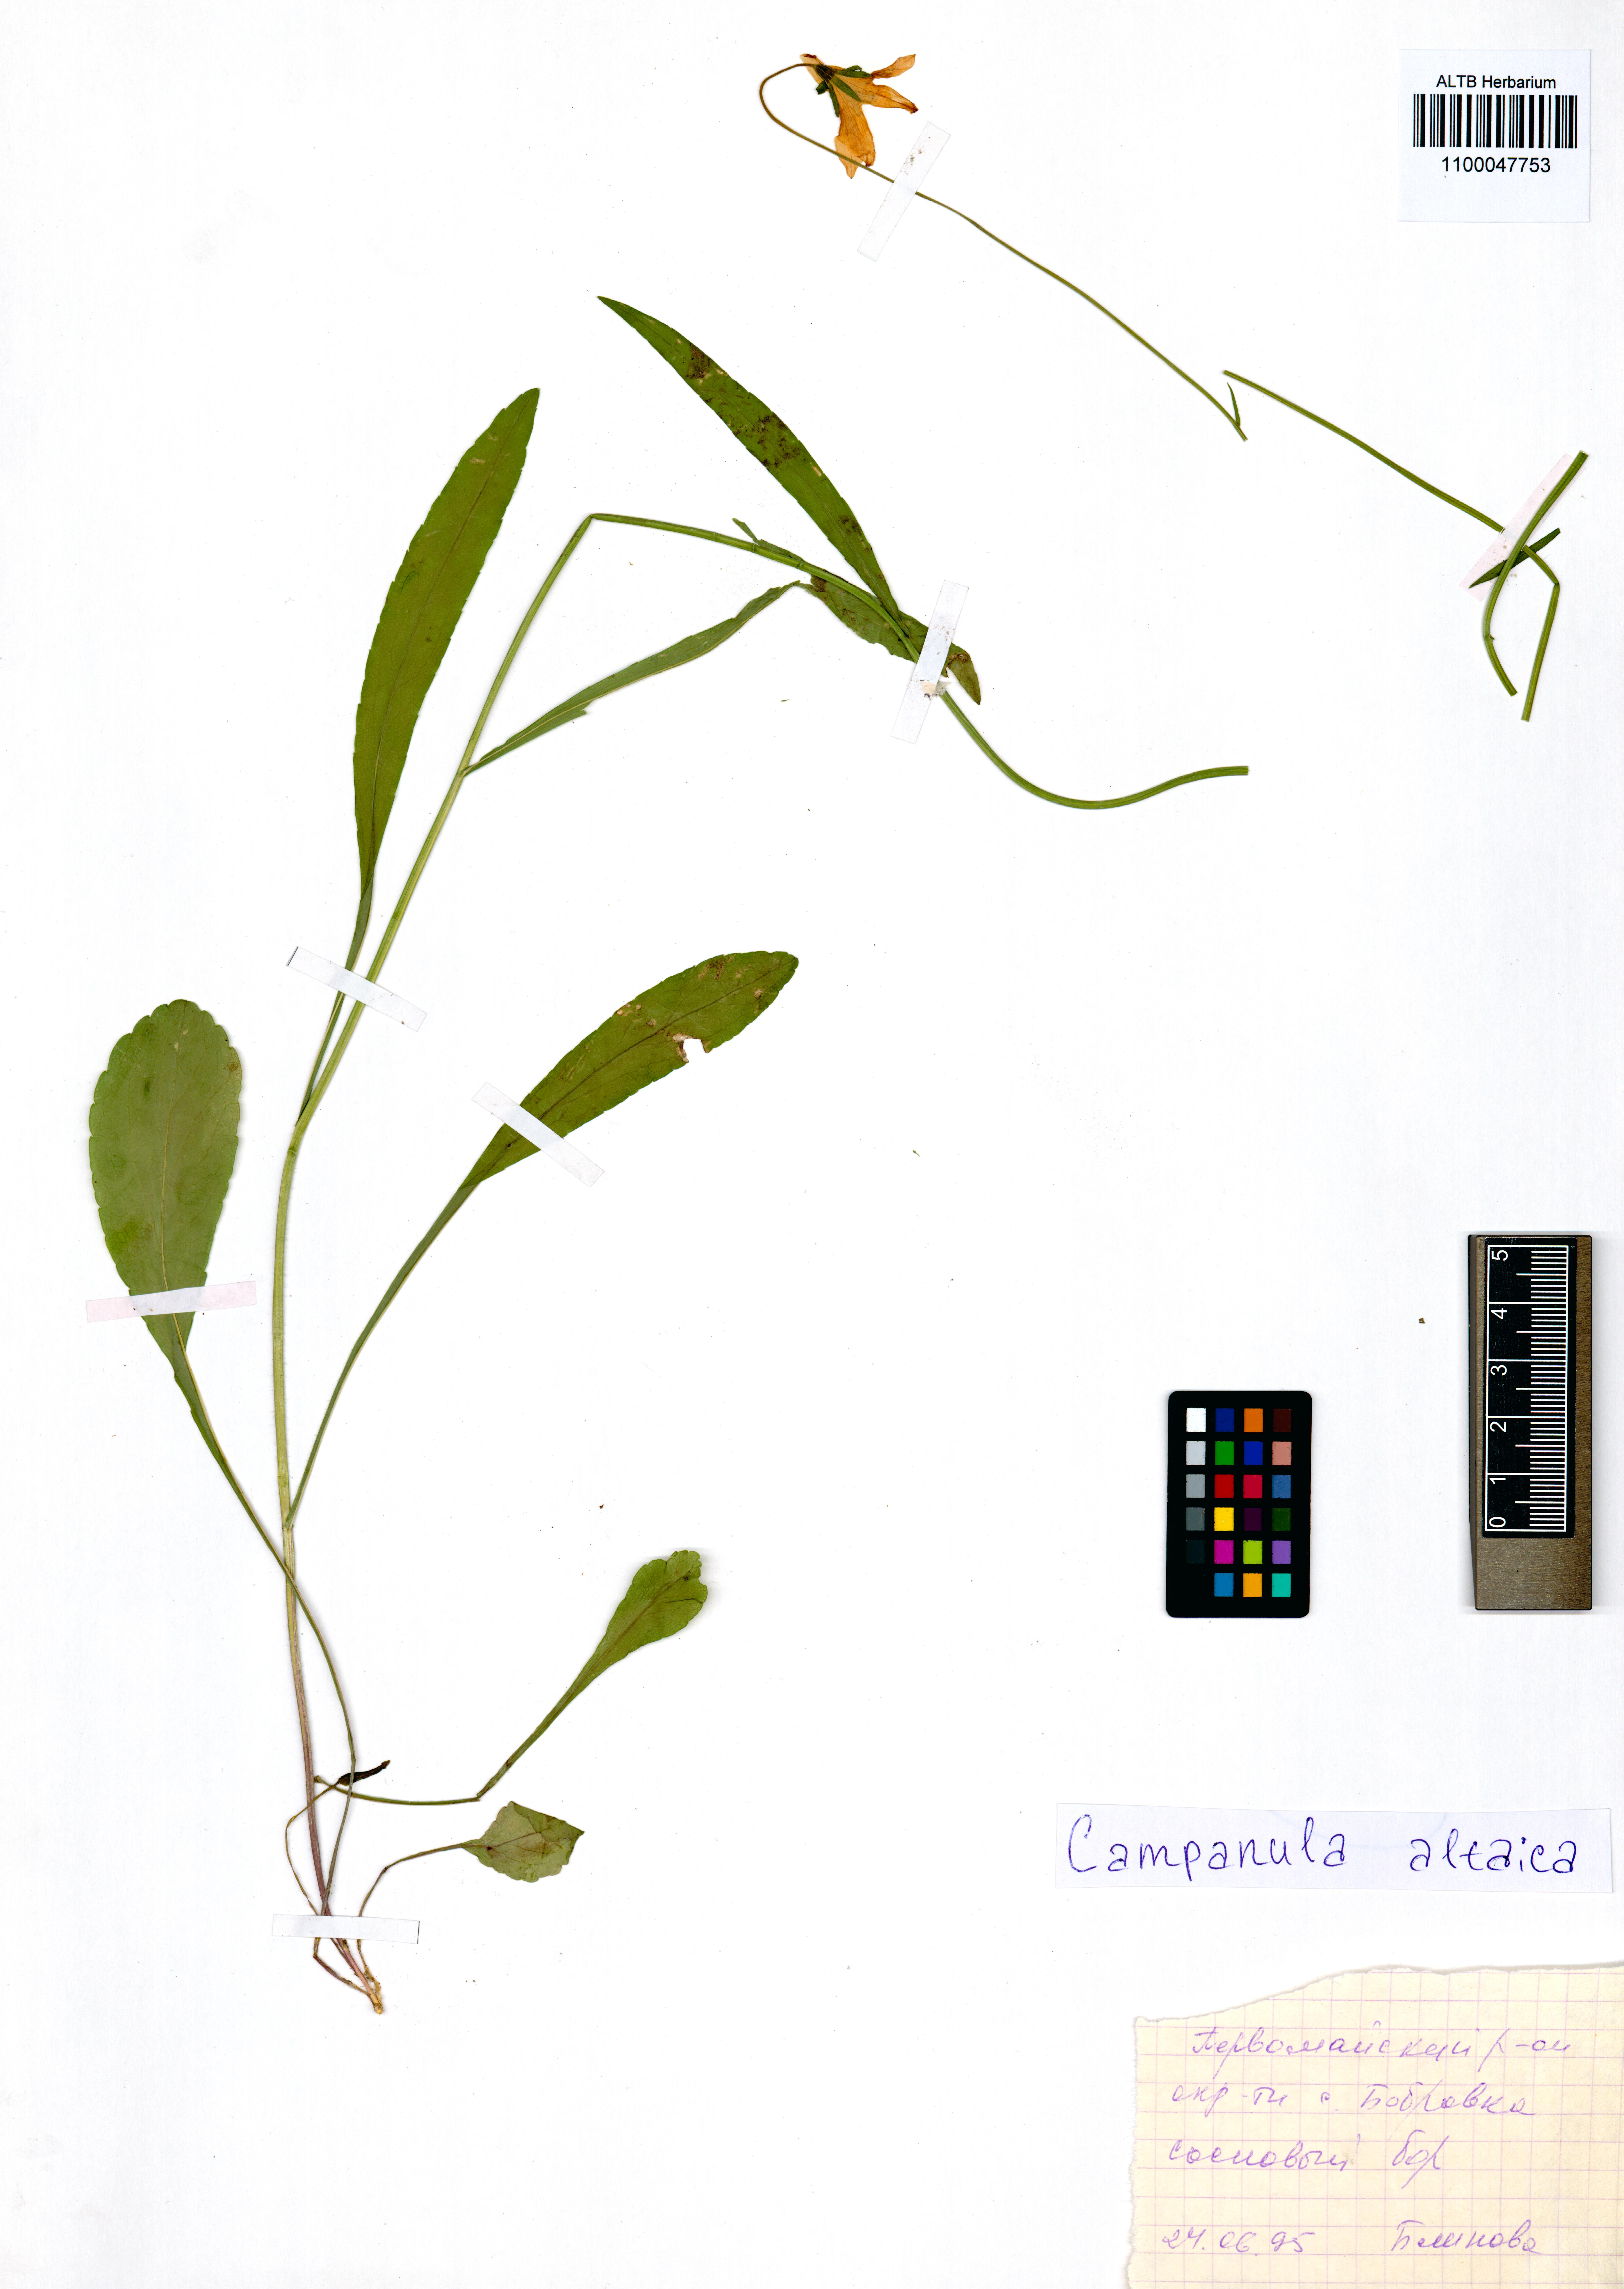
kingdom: Plantae
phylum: Tracheophyta
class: Magnoliopsida
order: Asterales
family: Campanulaceae
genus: Campanula
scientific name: Campanula stevenii
